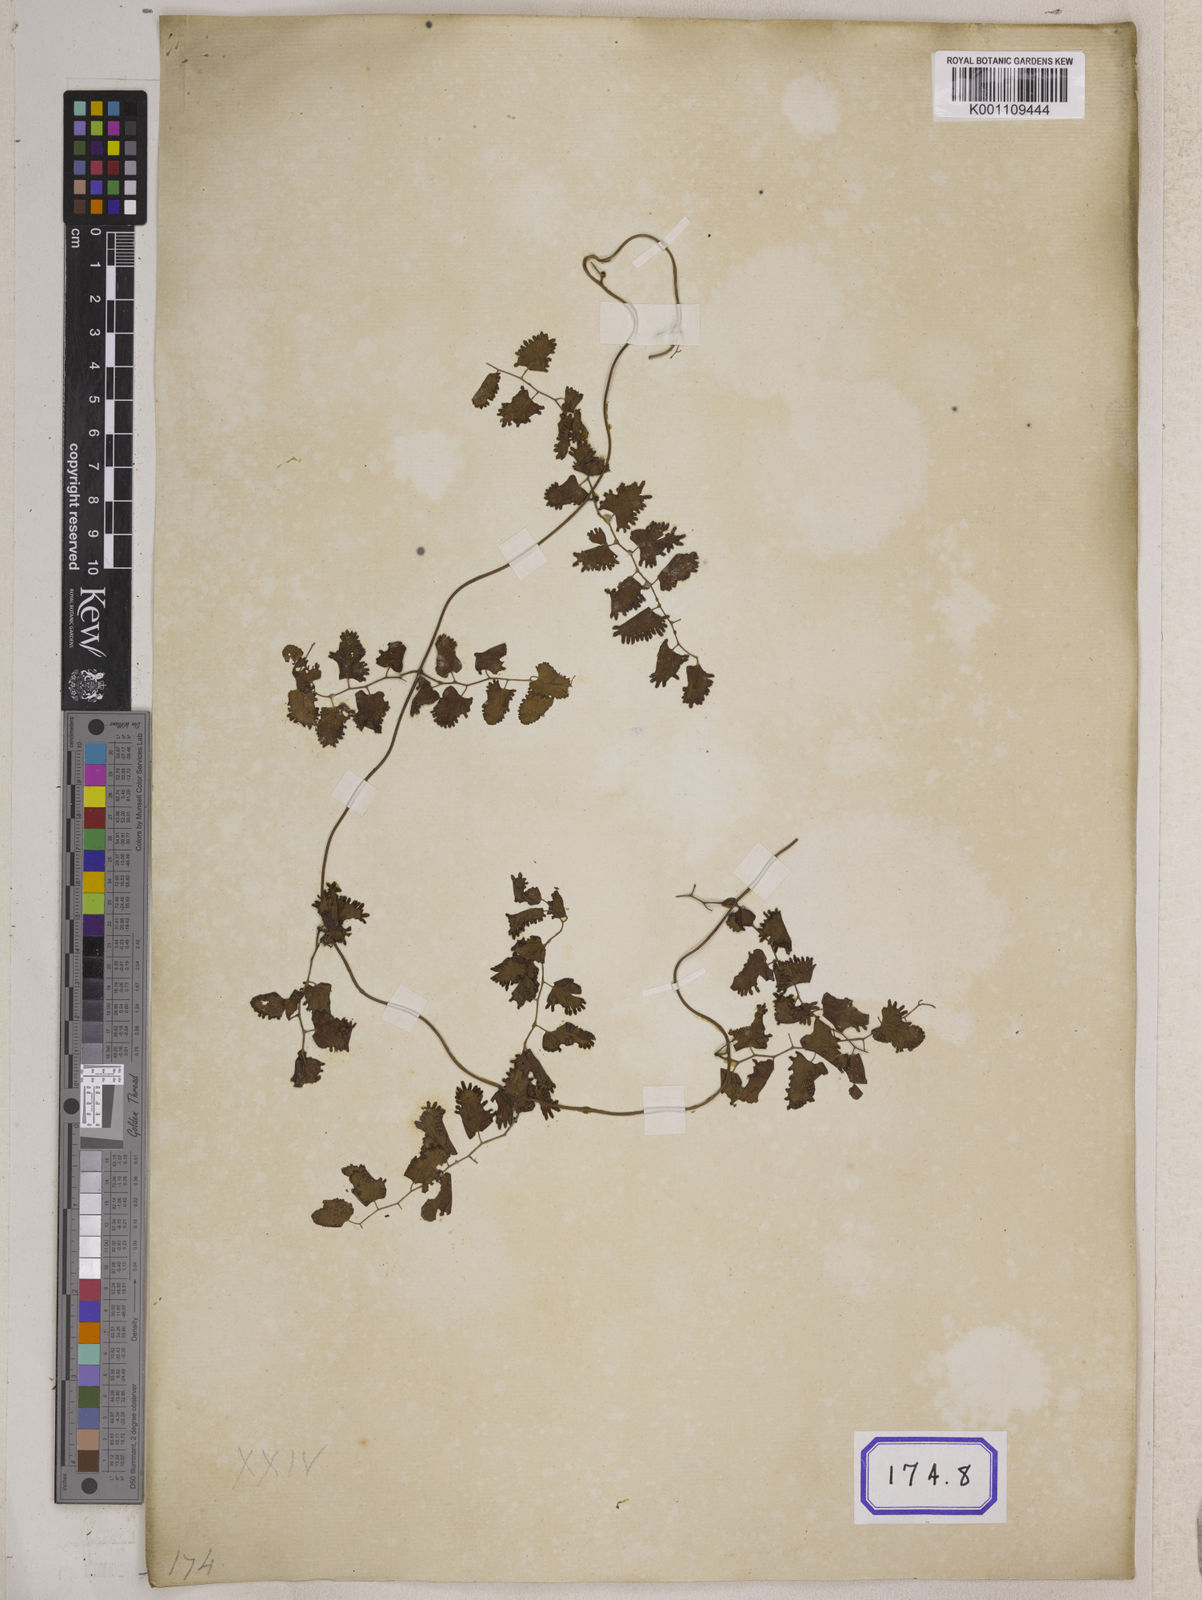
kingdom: Plantae
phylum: Tracheophyta
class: Polypodiopsida
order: Schizaeales
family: Lygodiaceae
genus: Lygodium
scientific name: Lygodium
